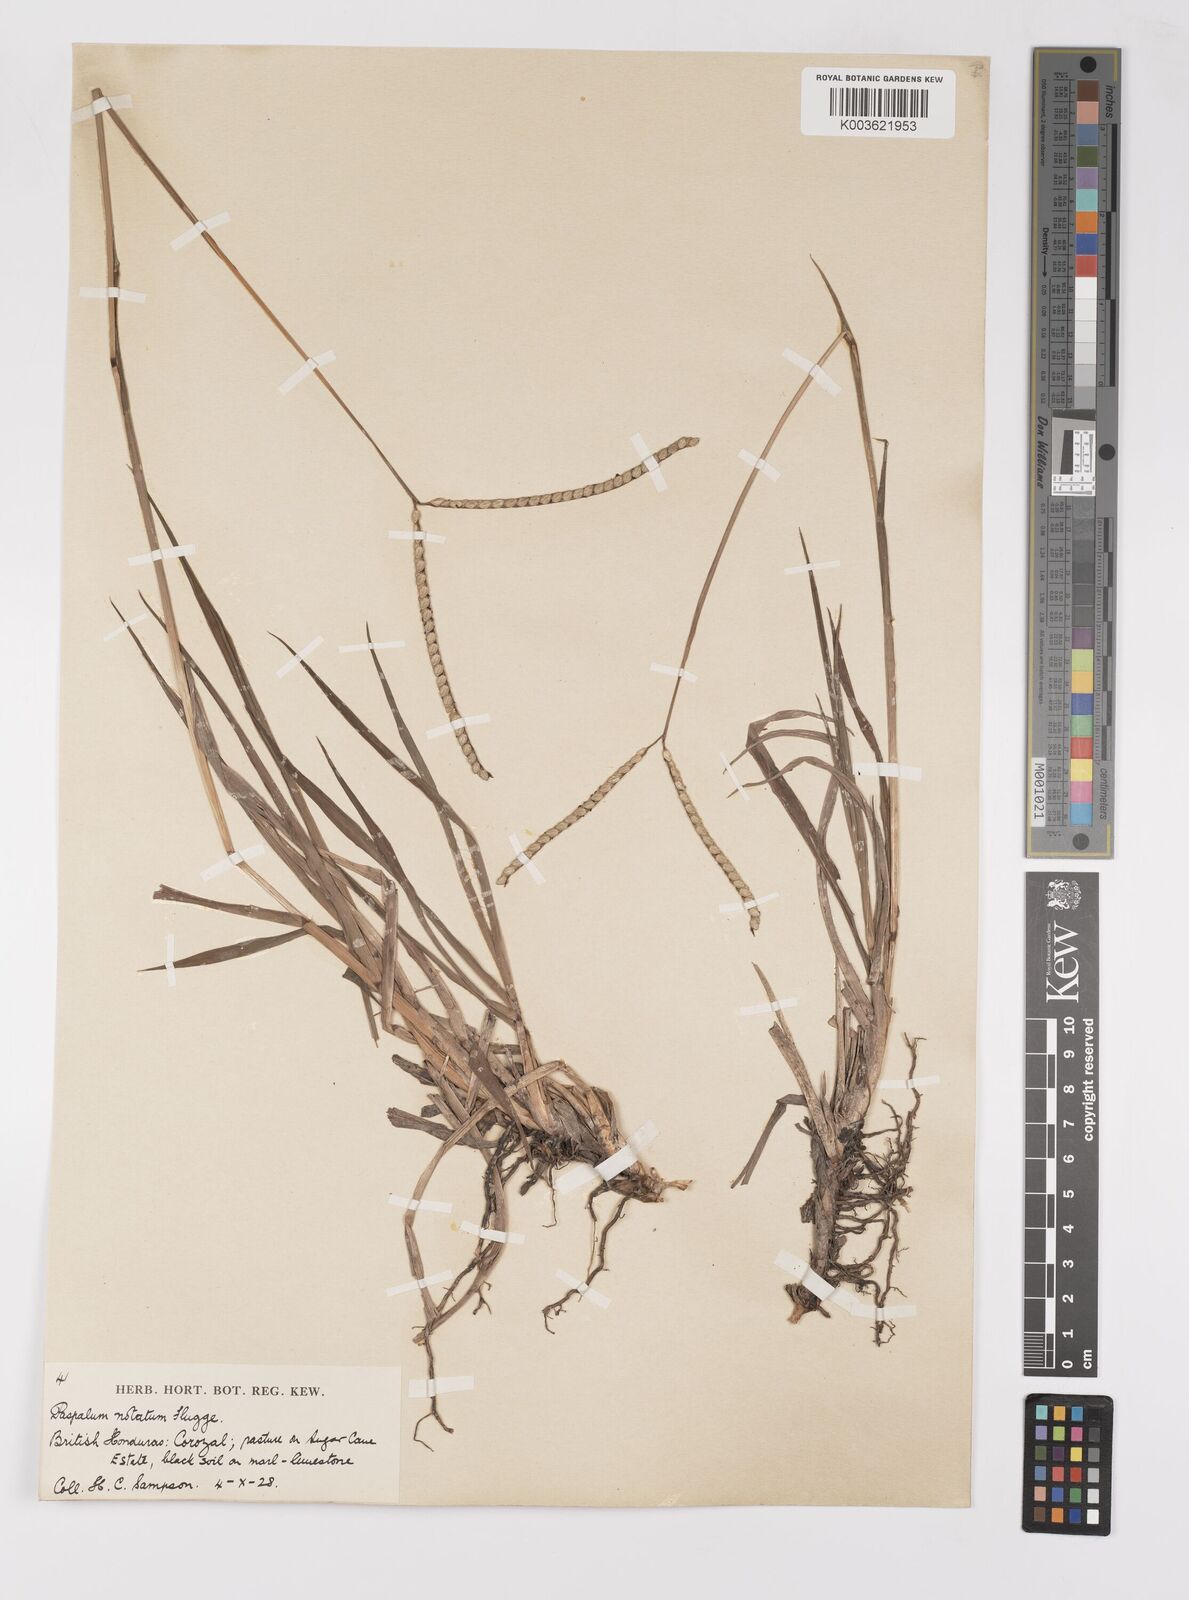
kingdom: Plantae
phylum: Tracheophyta
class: Liliopsida
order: Poales
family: Poaceae
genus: Paspalum
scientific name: Paspalum notatum
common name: Bahiagrass
